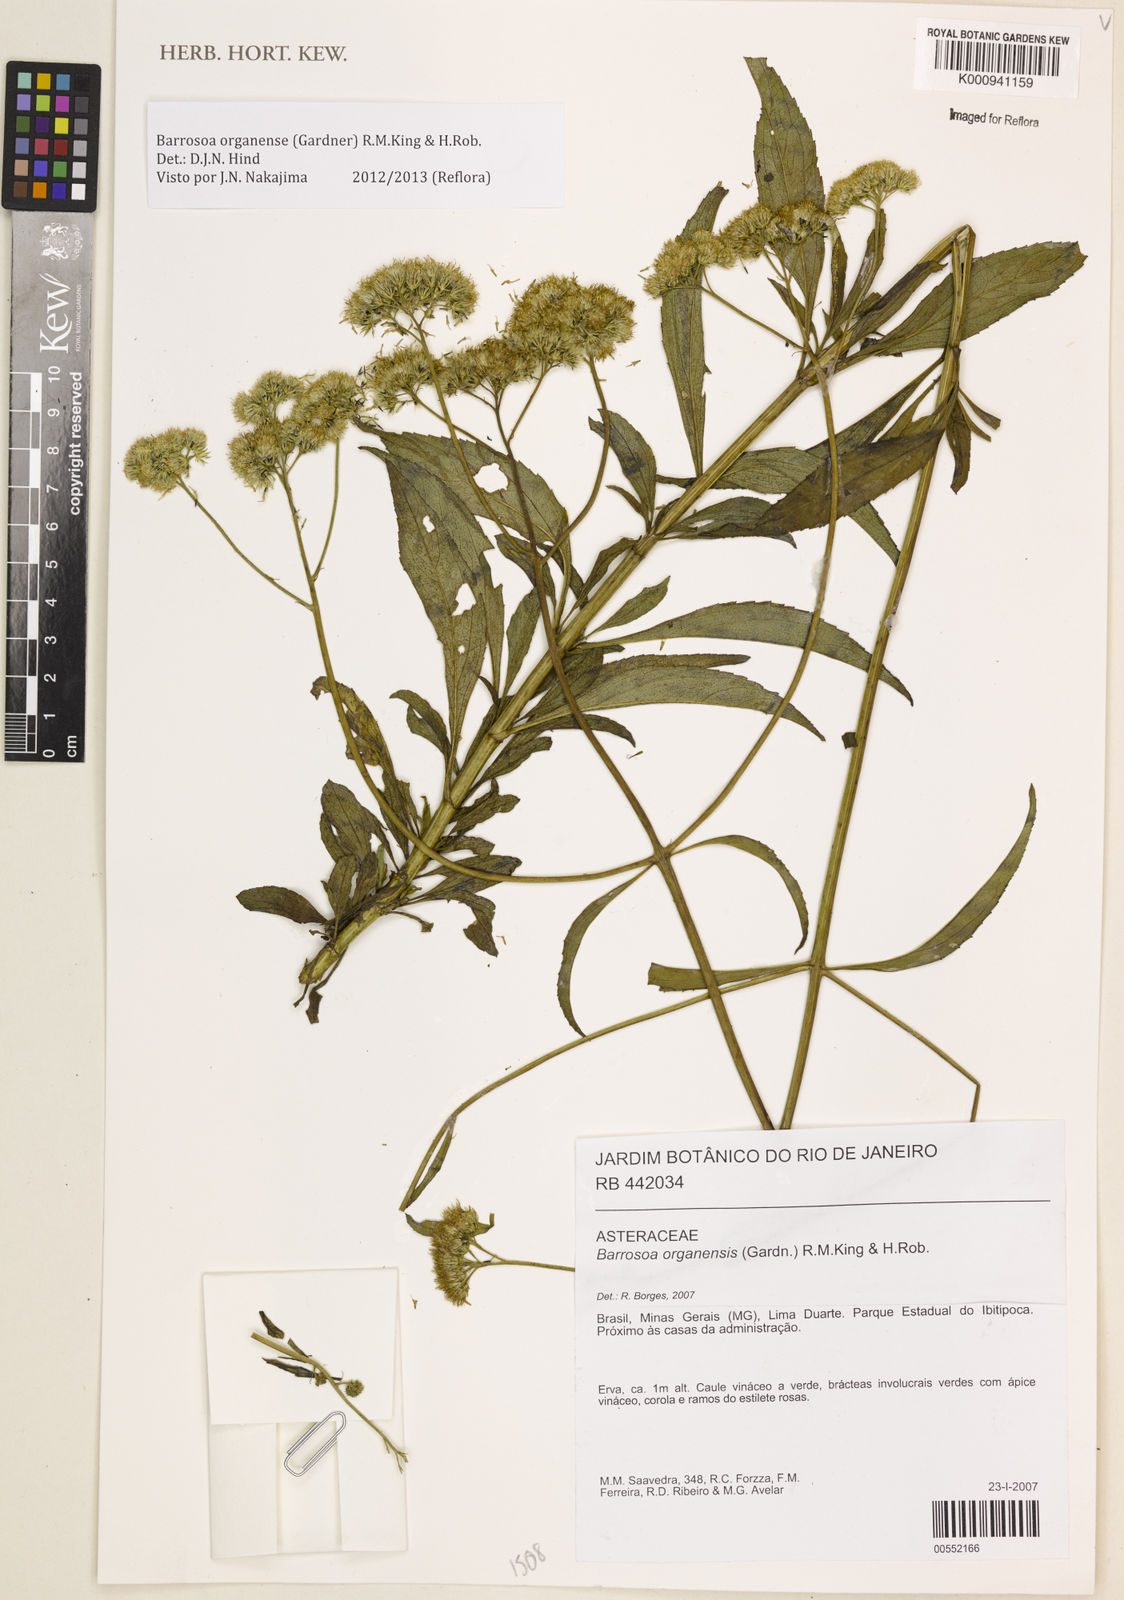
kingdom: Plantae
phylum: Tracheophyta
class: Magnoliopsida
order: Asterales
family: Asteraceae
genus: Barrosoa
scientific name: Barrosoa
